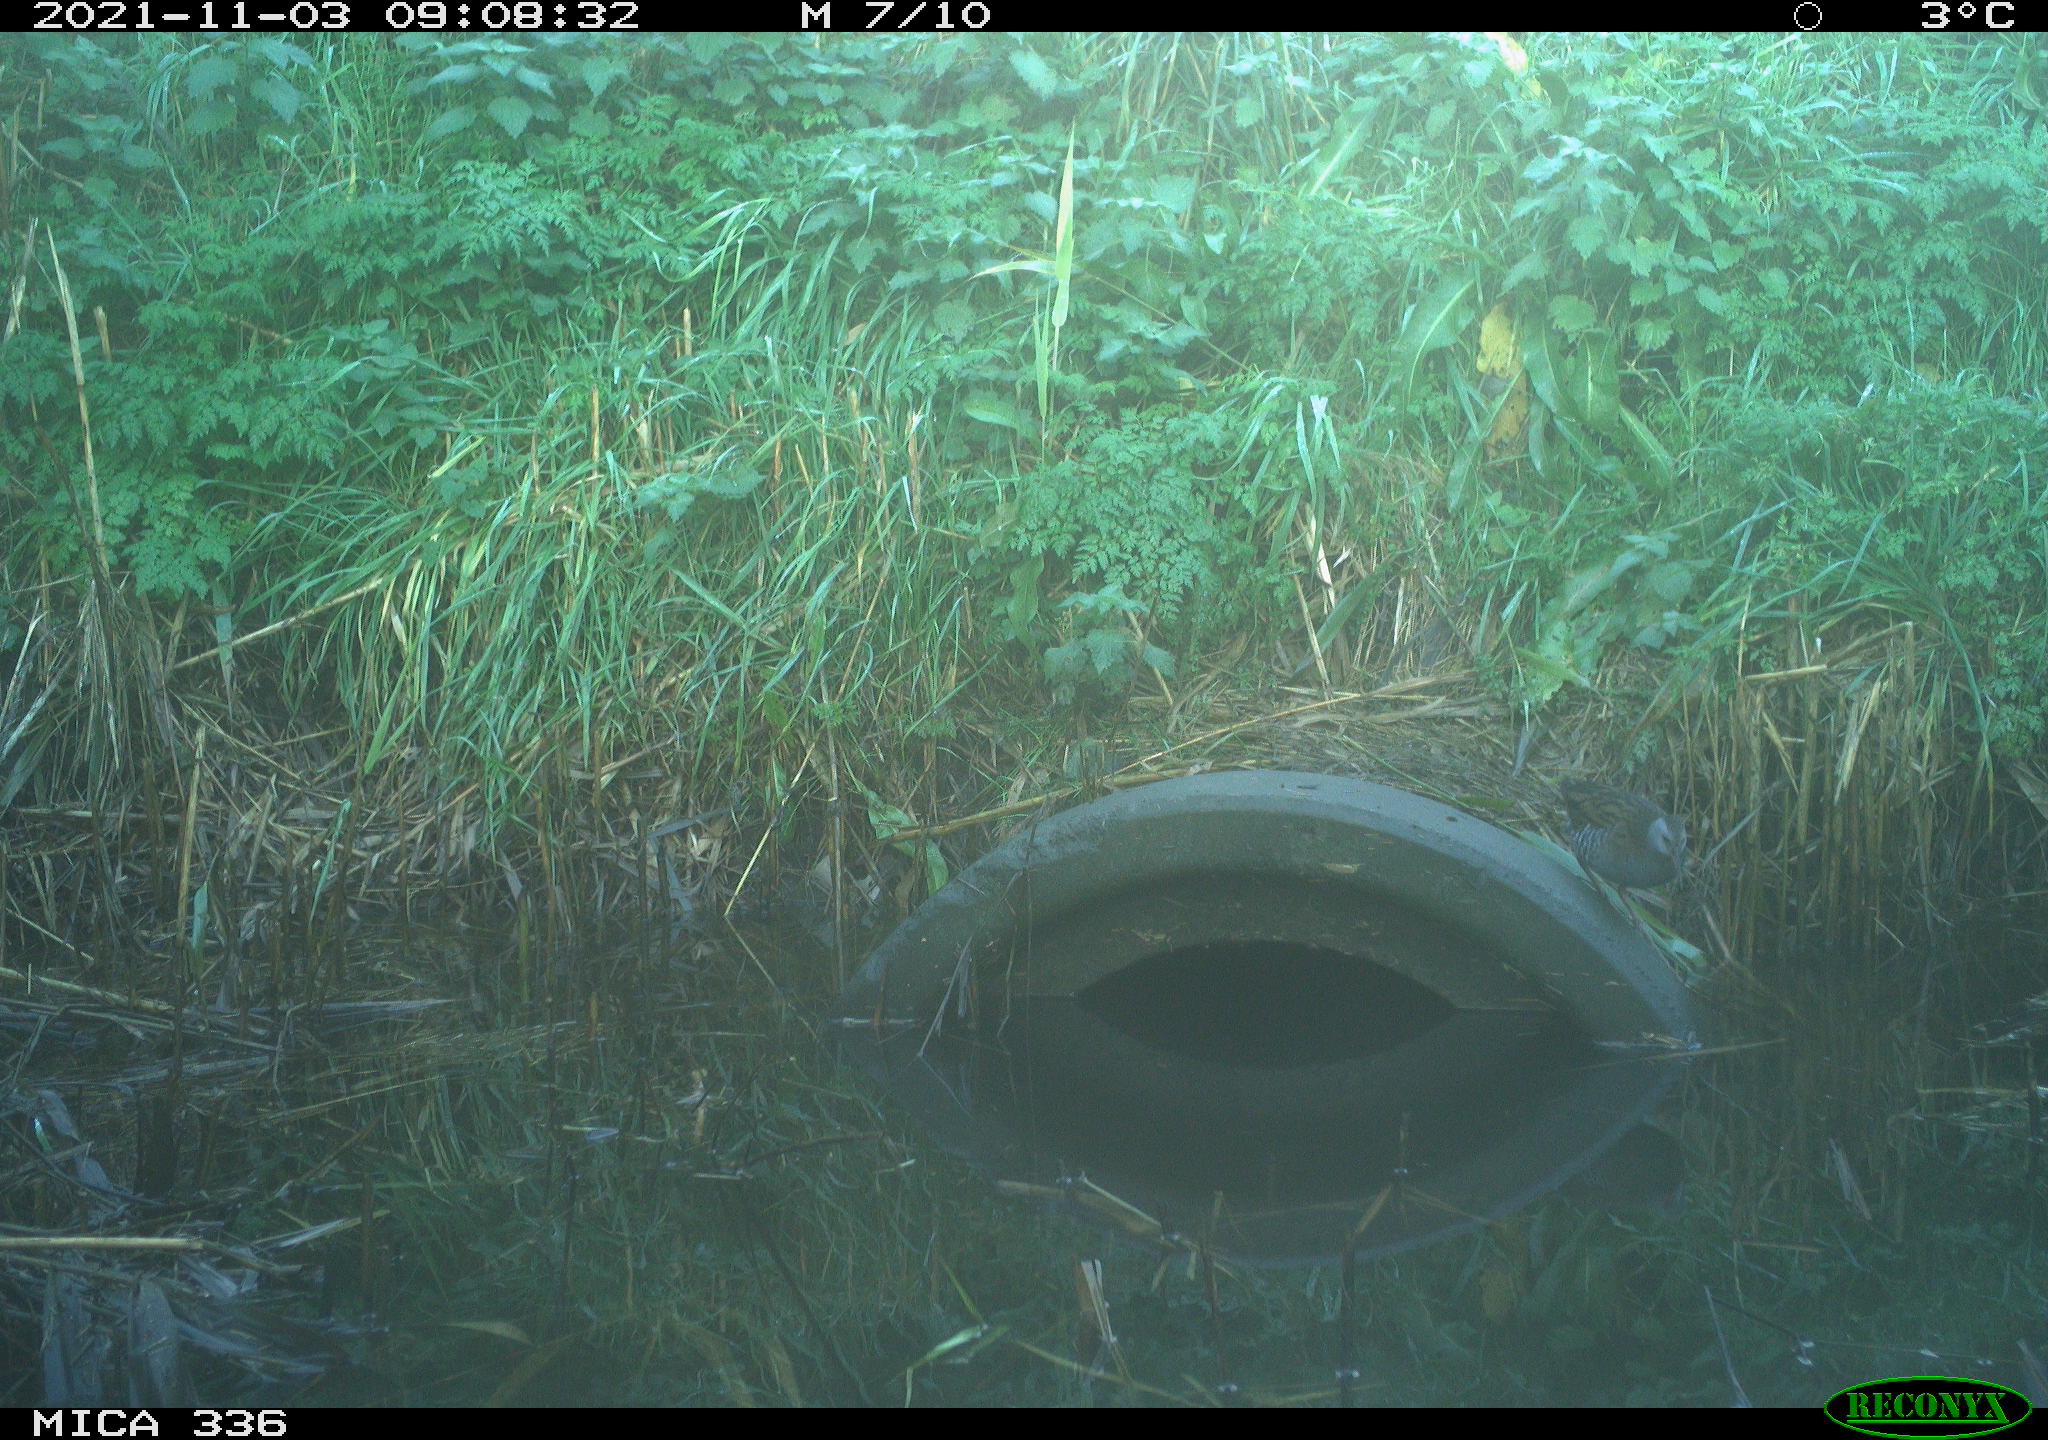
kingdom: Animalia
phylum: Chordata
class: Aves
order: Gruiformes
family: Rallidae
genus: Gallinula
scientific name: Gallinula chloropus
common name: Common moorhen
